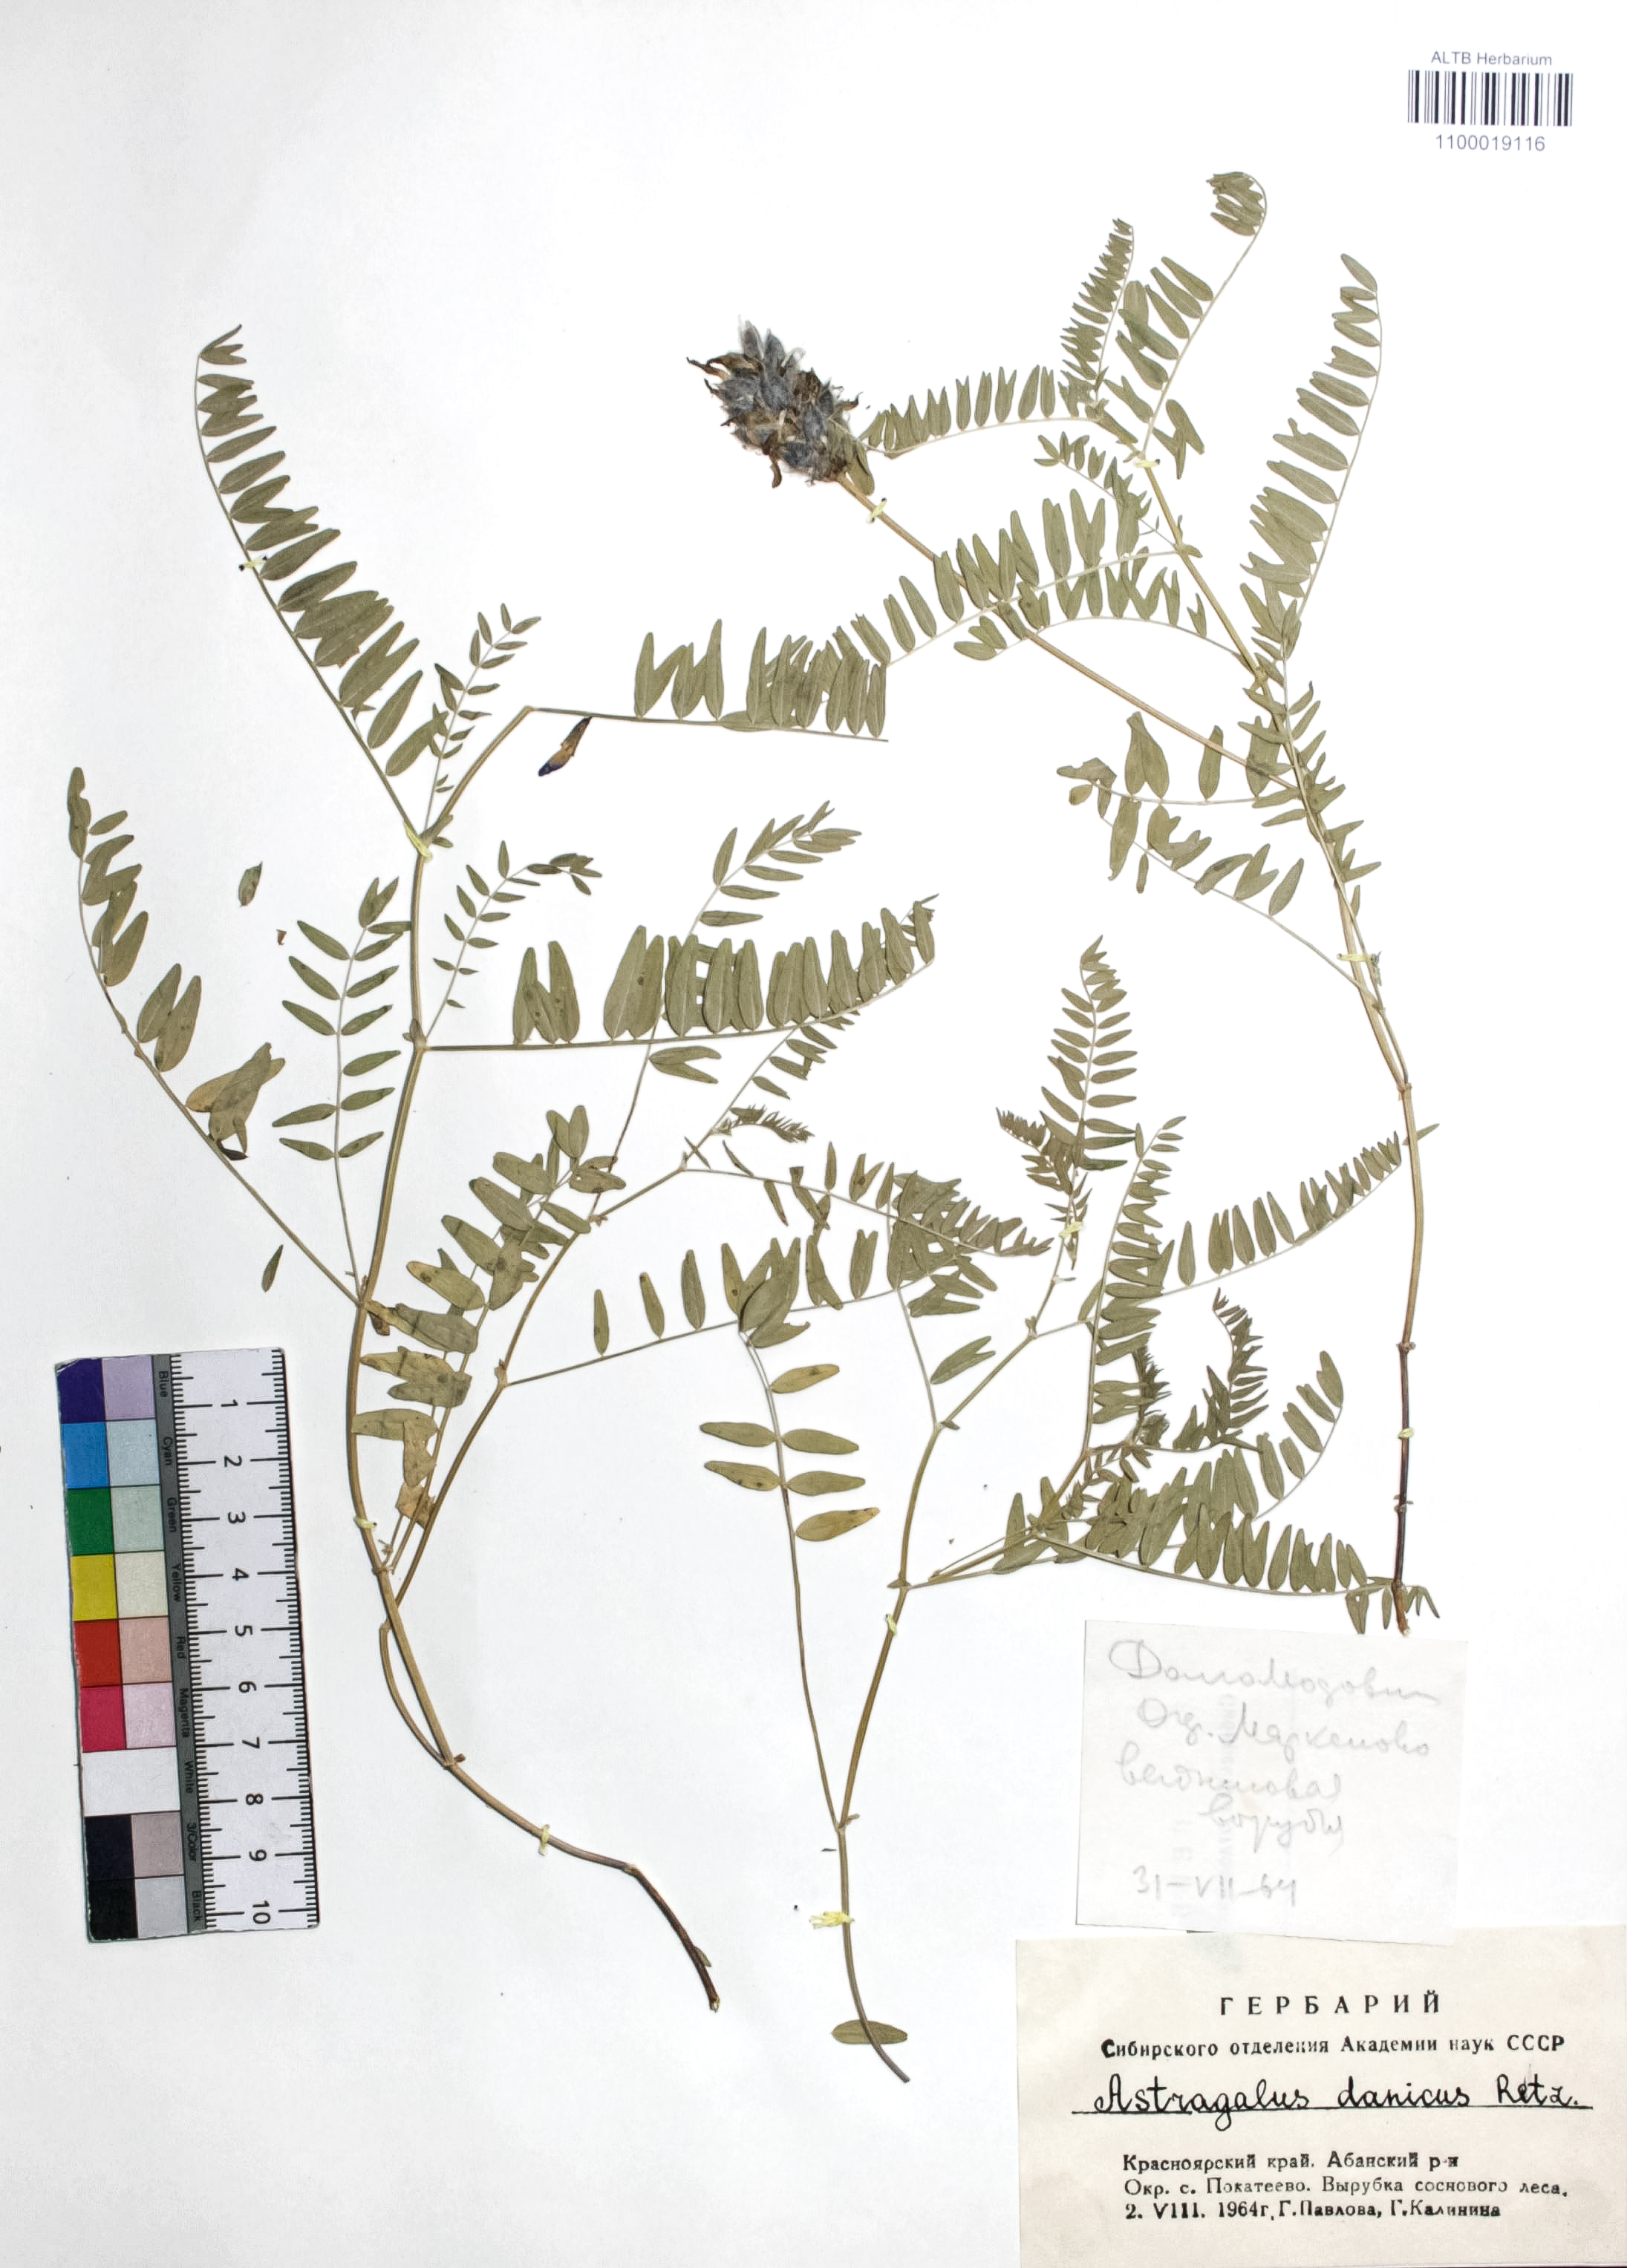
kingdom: Plantae
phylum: Tracheophyta
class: Magnoliopsida
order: Fabales
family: Fabaceae
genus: Astragalus
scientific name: Astragalus danicus
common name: Purple milk-vetch
